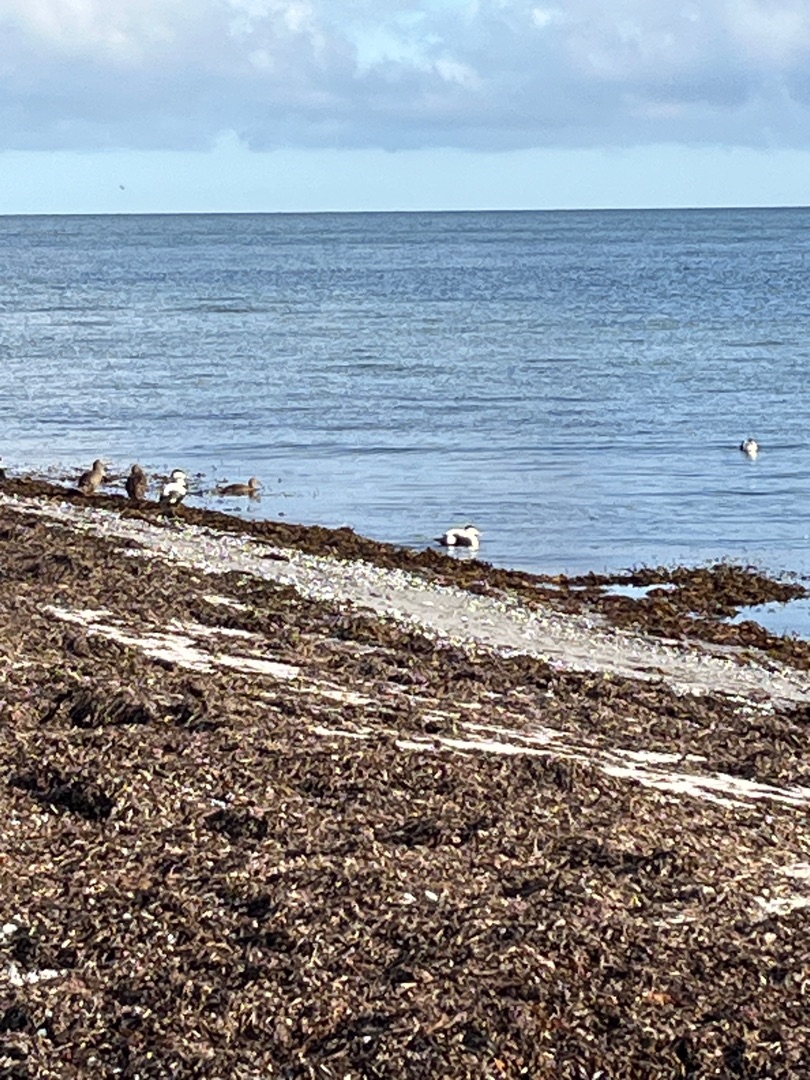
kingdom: Animalia
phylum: Chordata
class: Aves
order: Anseriformes
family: Anatidae
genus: Somateria
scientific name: Somateria mollissima
